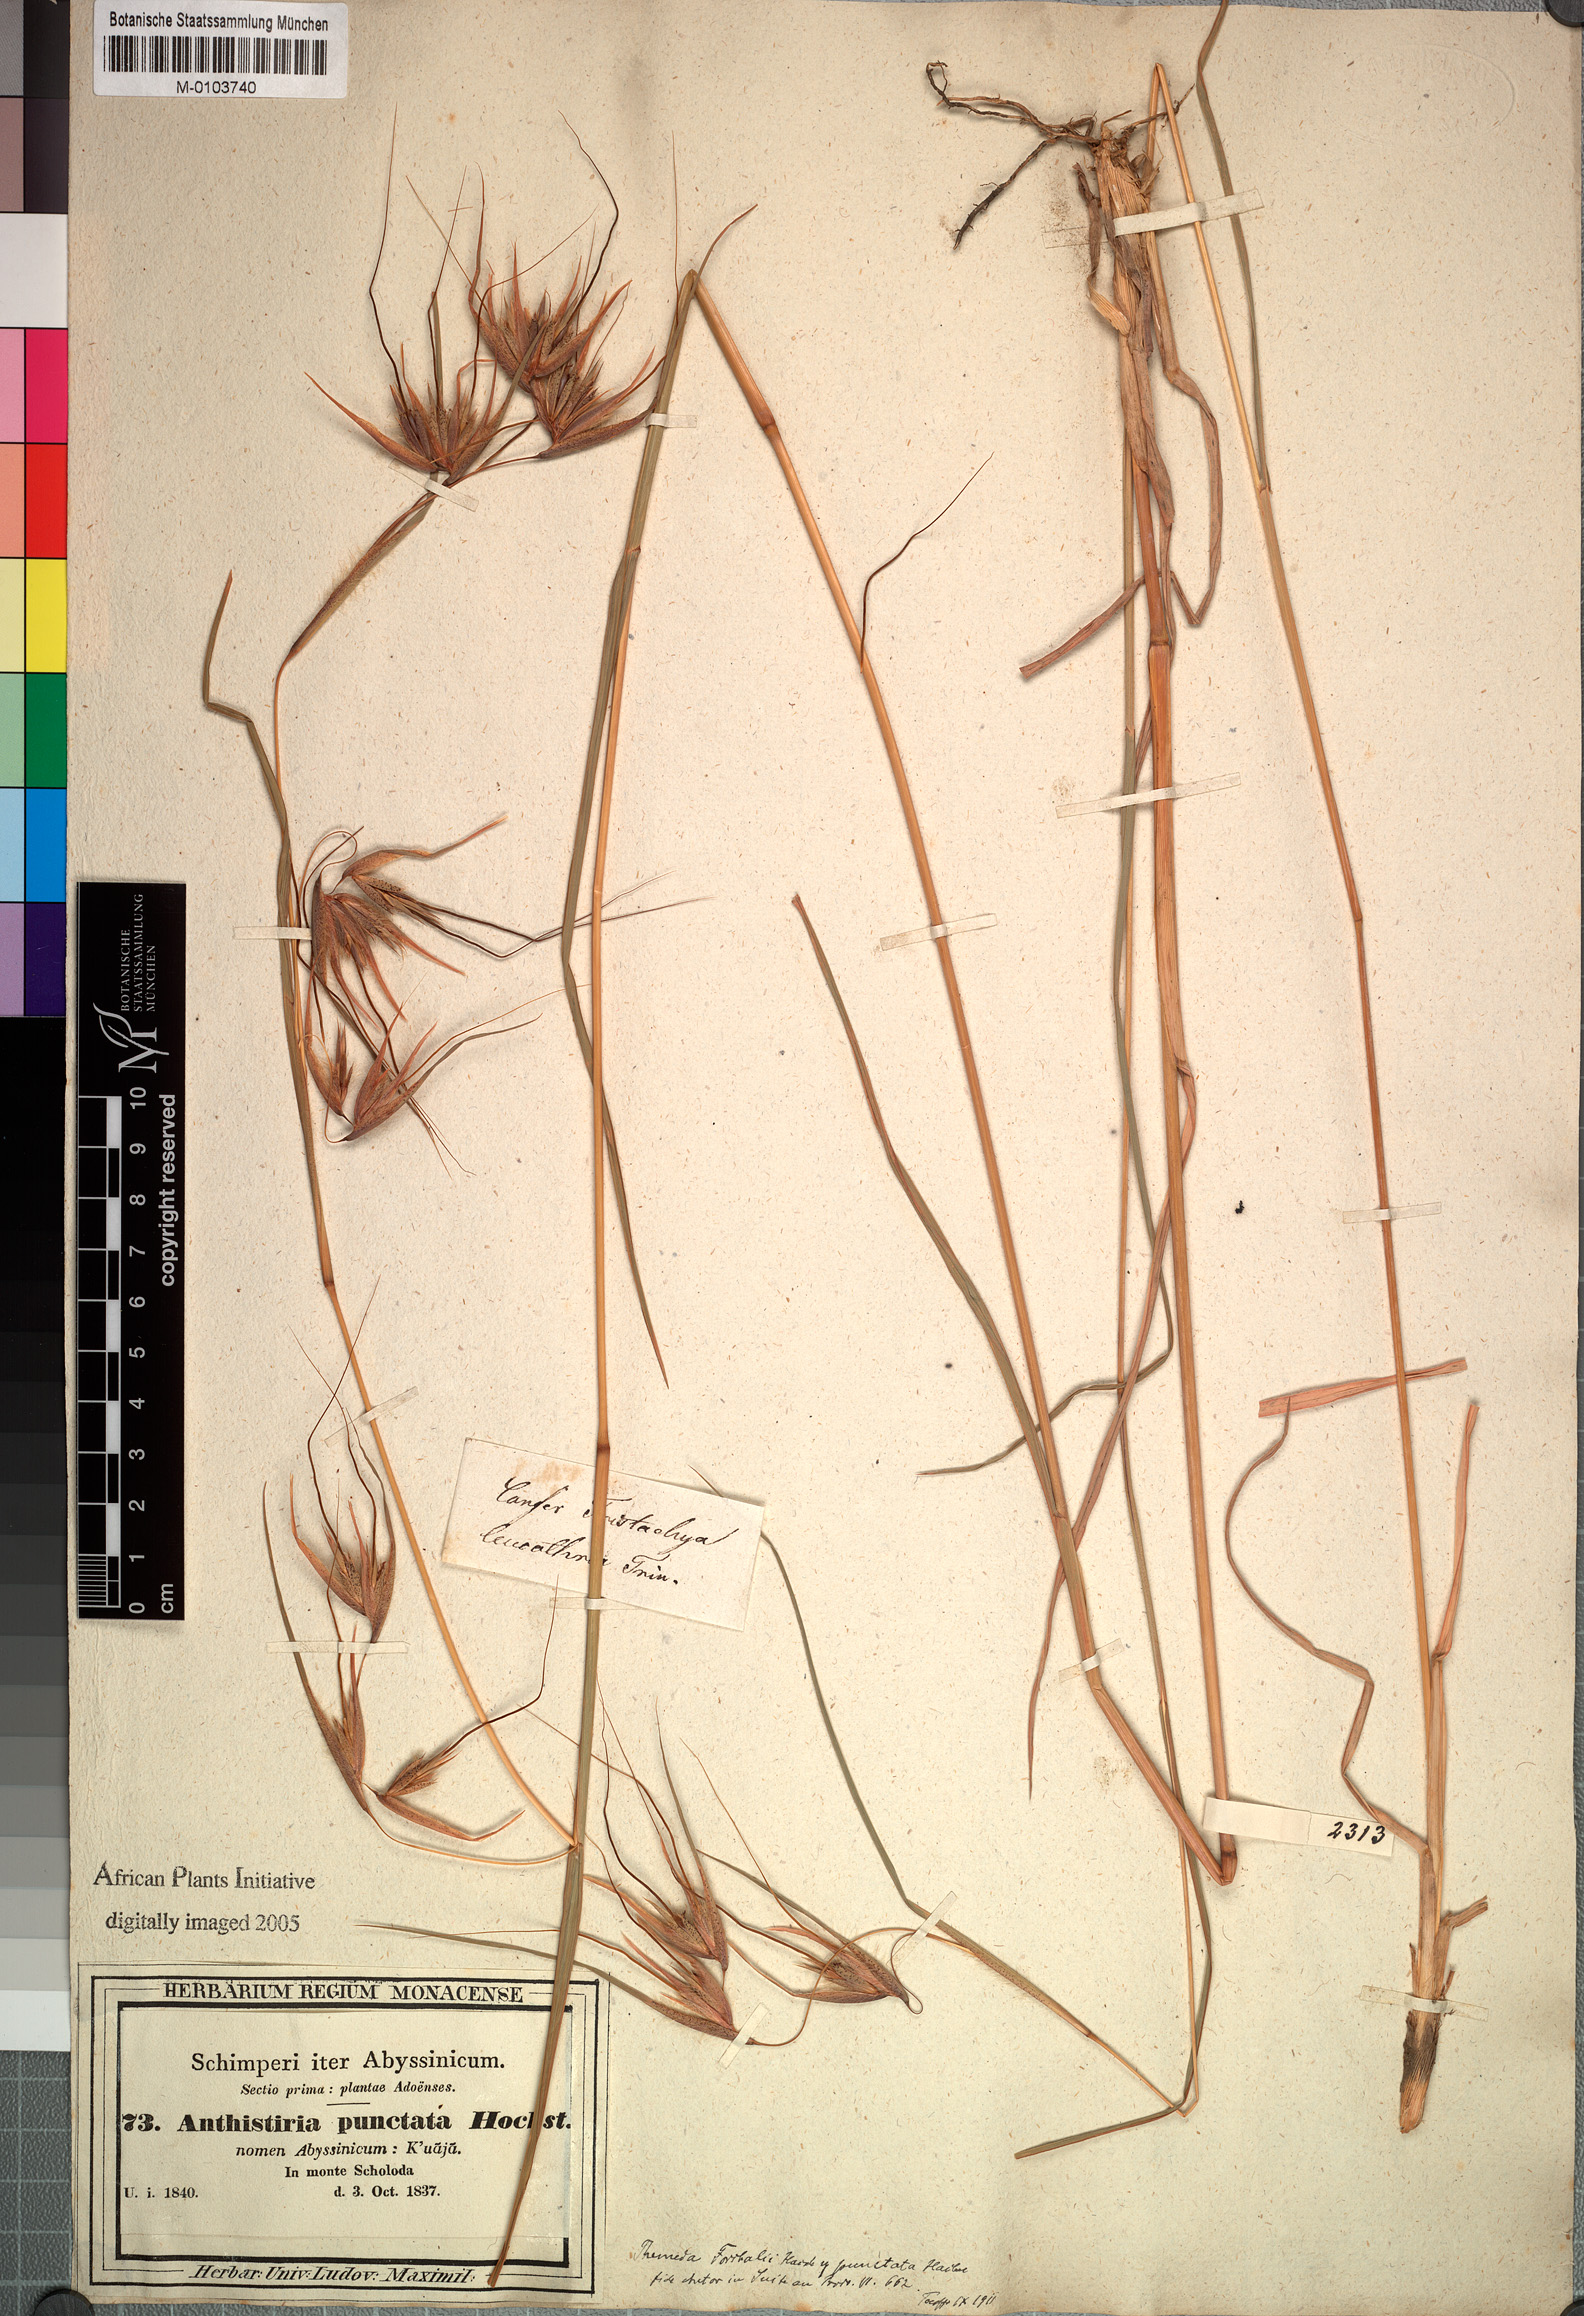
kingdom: Plantae
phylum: Tracheophyta
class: Liliopsida
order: Poales
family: Poaceae
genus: Themeda
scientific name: Themeda triandra
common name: Kangaroo grass
